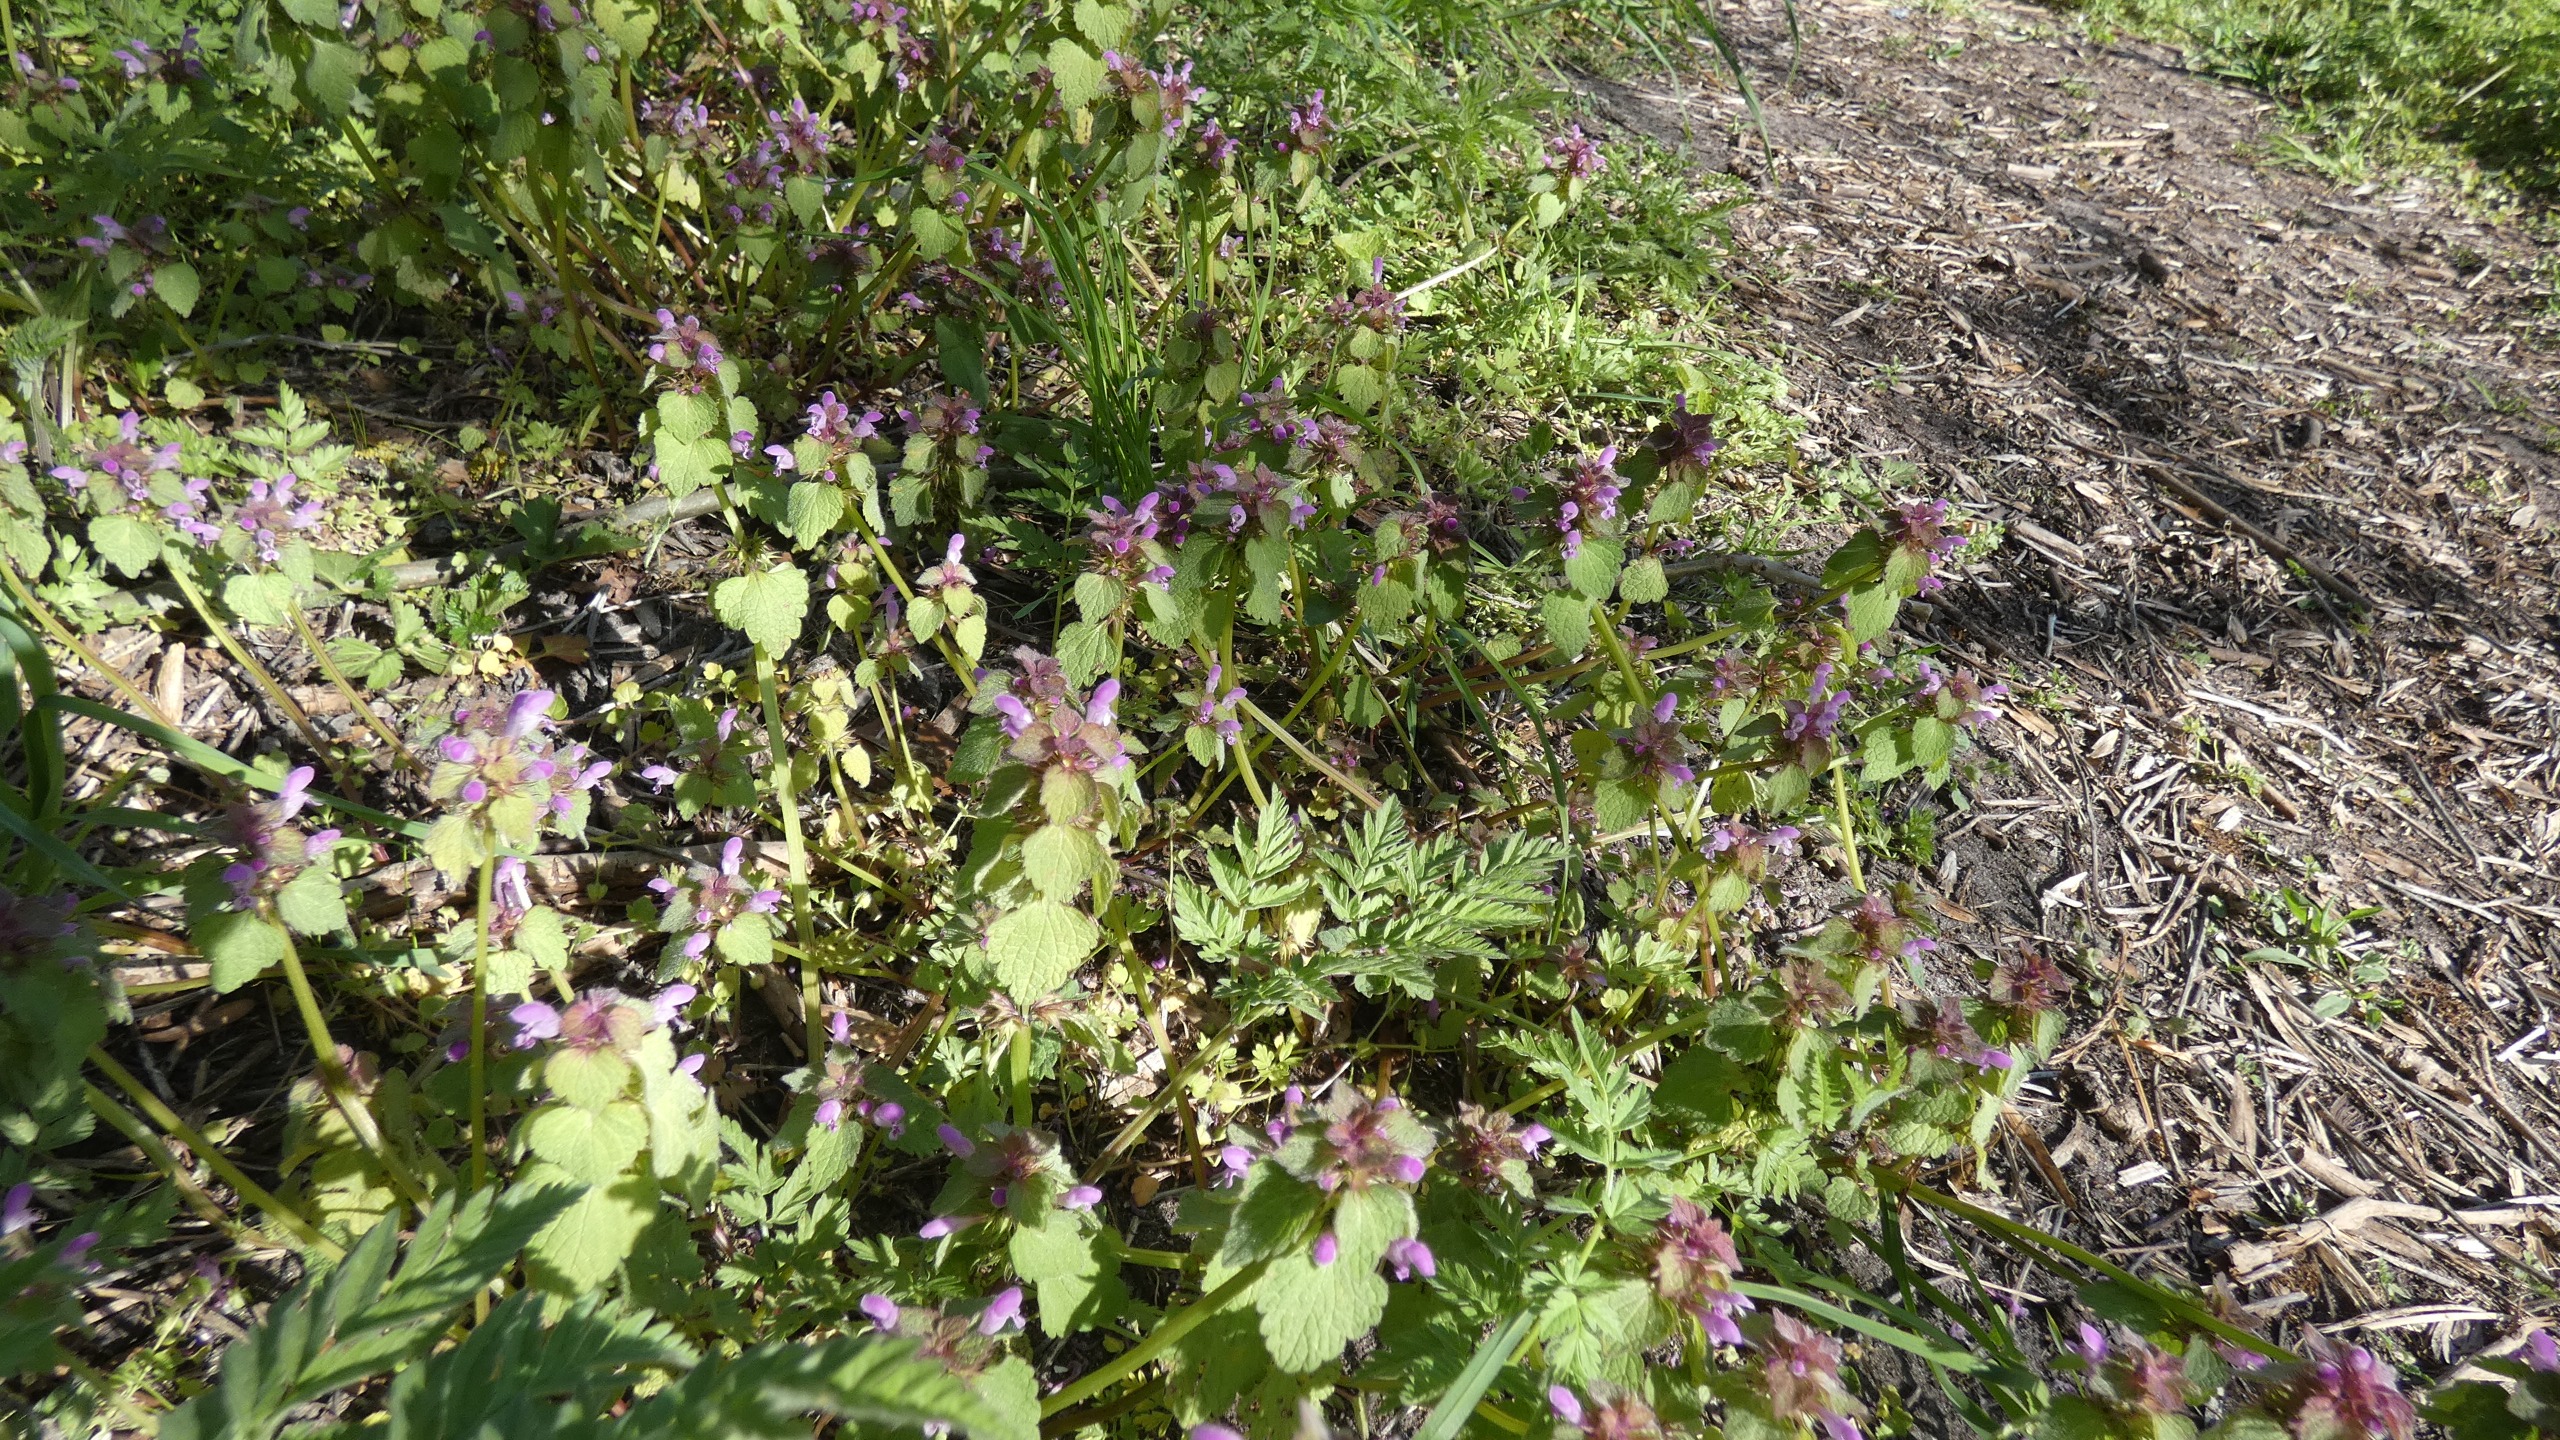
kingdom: Plantae
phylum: Tracheophyta
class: Magnoliopsida
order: Lamiales
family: Lamiaceae
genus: Lamium
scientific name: Lamium purpureum
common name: Rød tvetand
